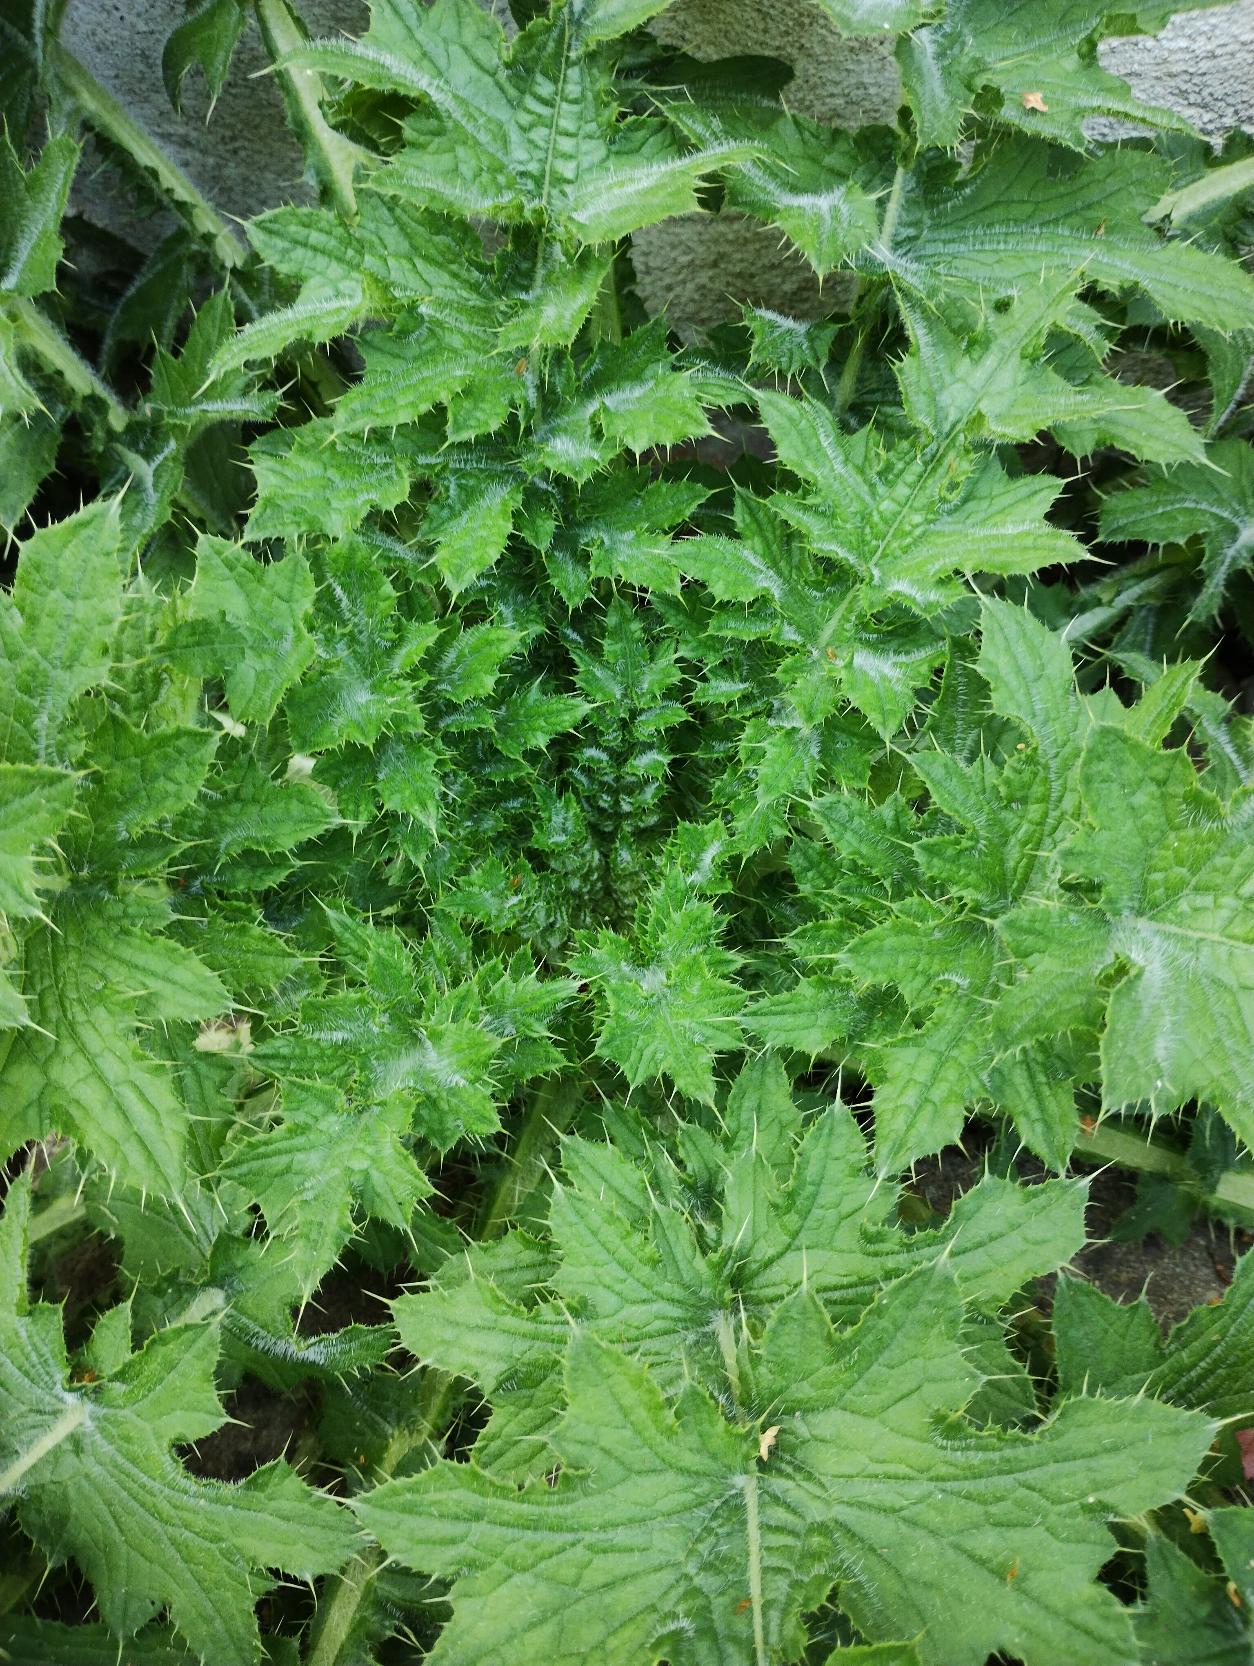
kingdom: Plantae
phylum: Tracheophyta
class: Magnoliopsida
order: Asterales
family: Asteraceae
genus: Carduus
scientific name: Carduus crispus
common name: Kruset tidsel
